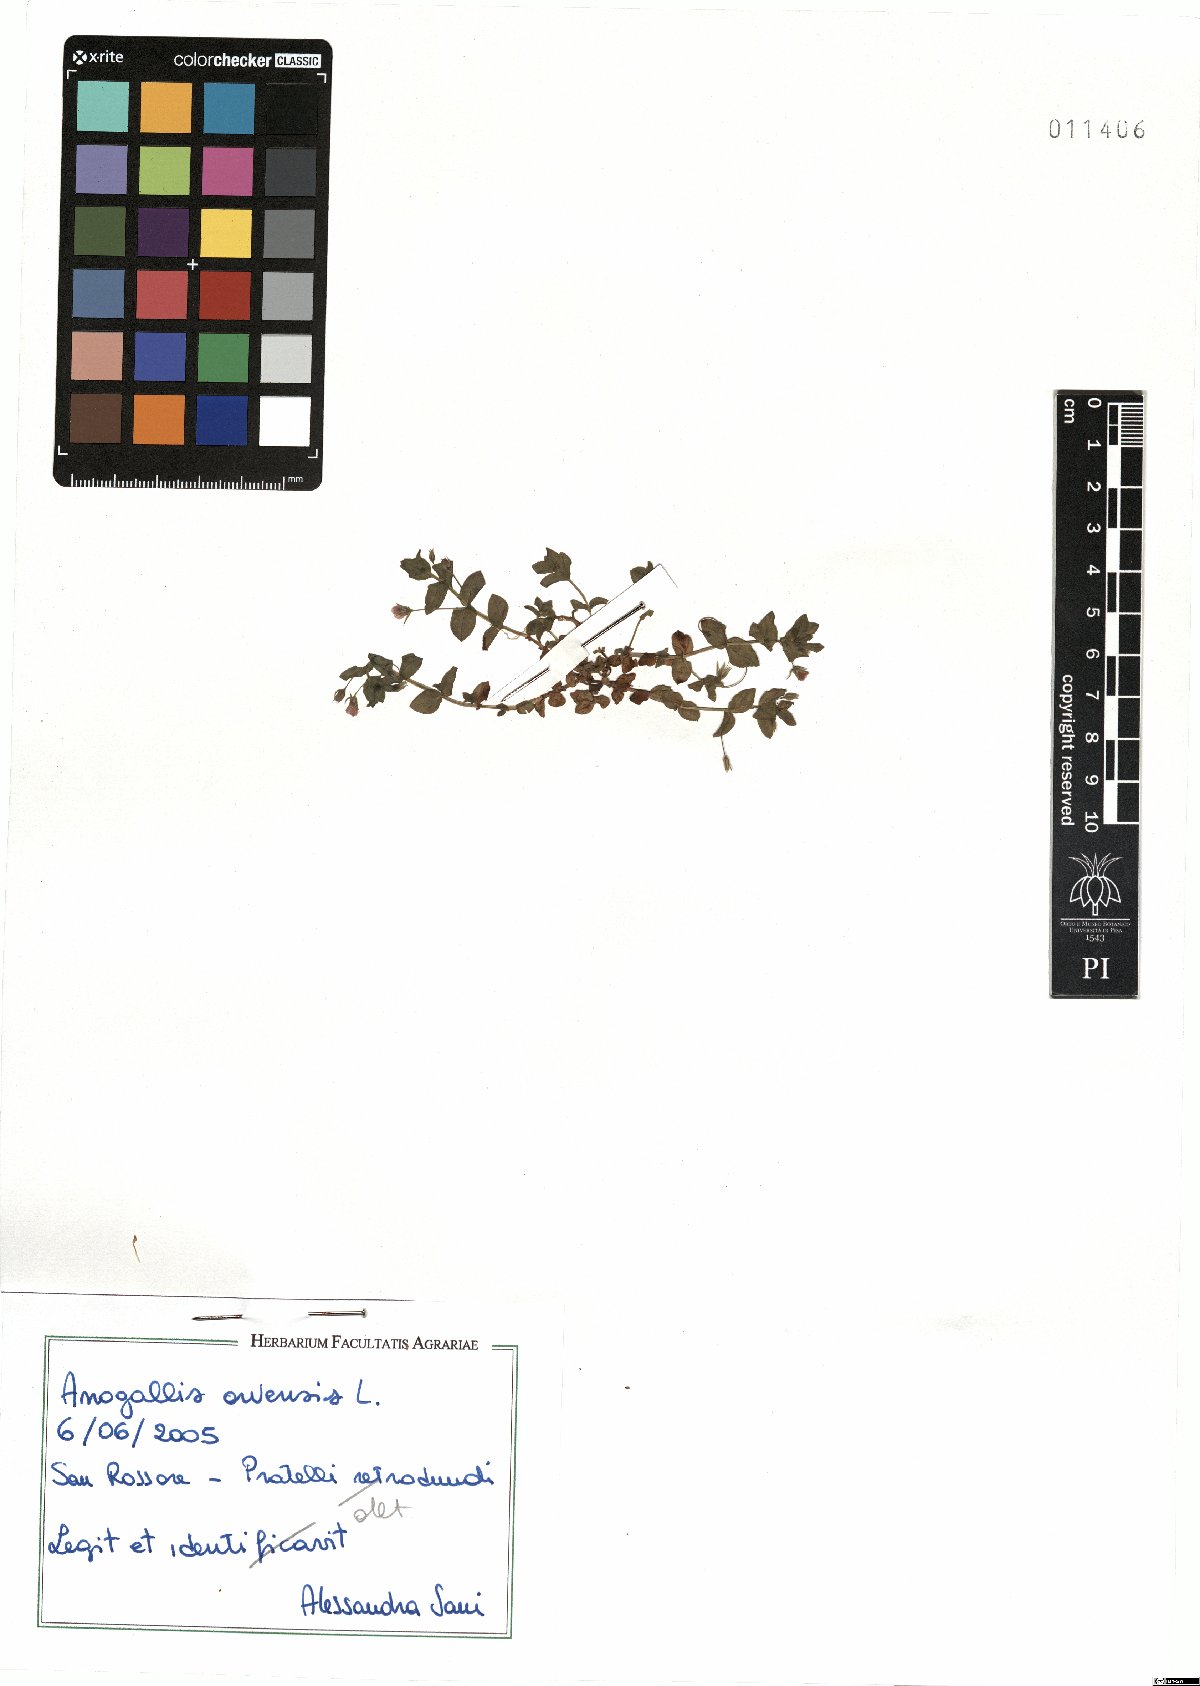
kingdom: Plantae
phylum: Tracheophyta
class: Magnoliopsida
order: Ericales
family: Primulaceae
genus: Lysimachia
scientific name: Lysimachia arvensis
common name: Scarlet pimpernel
